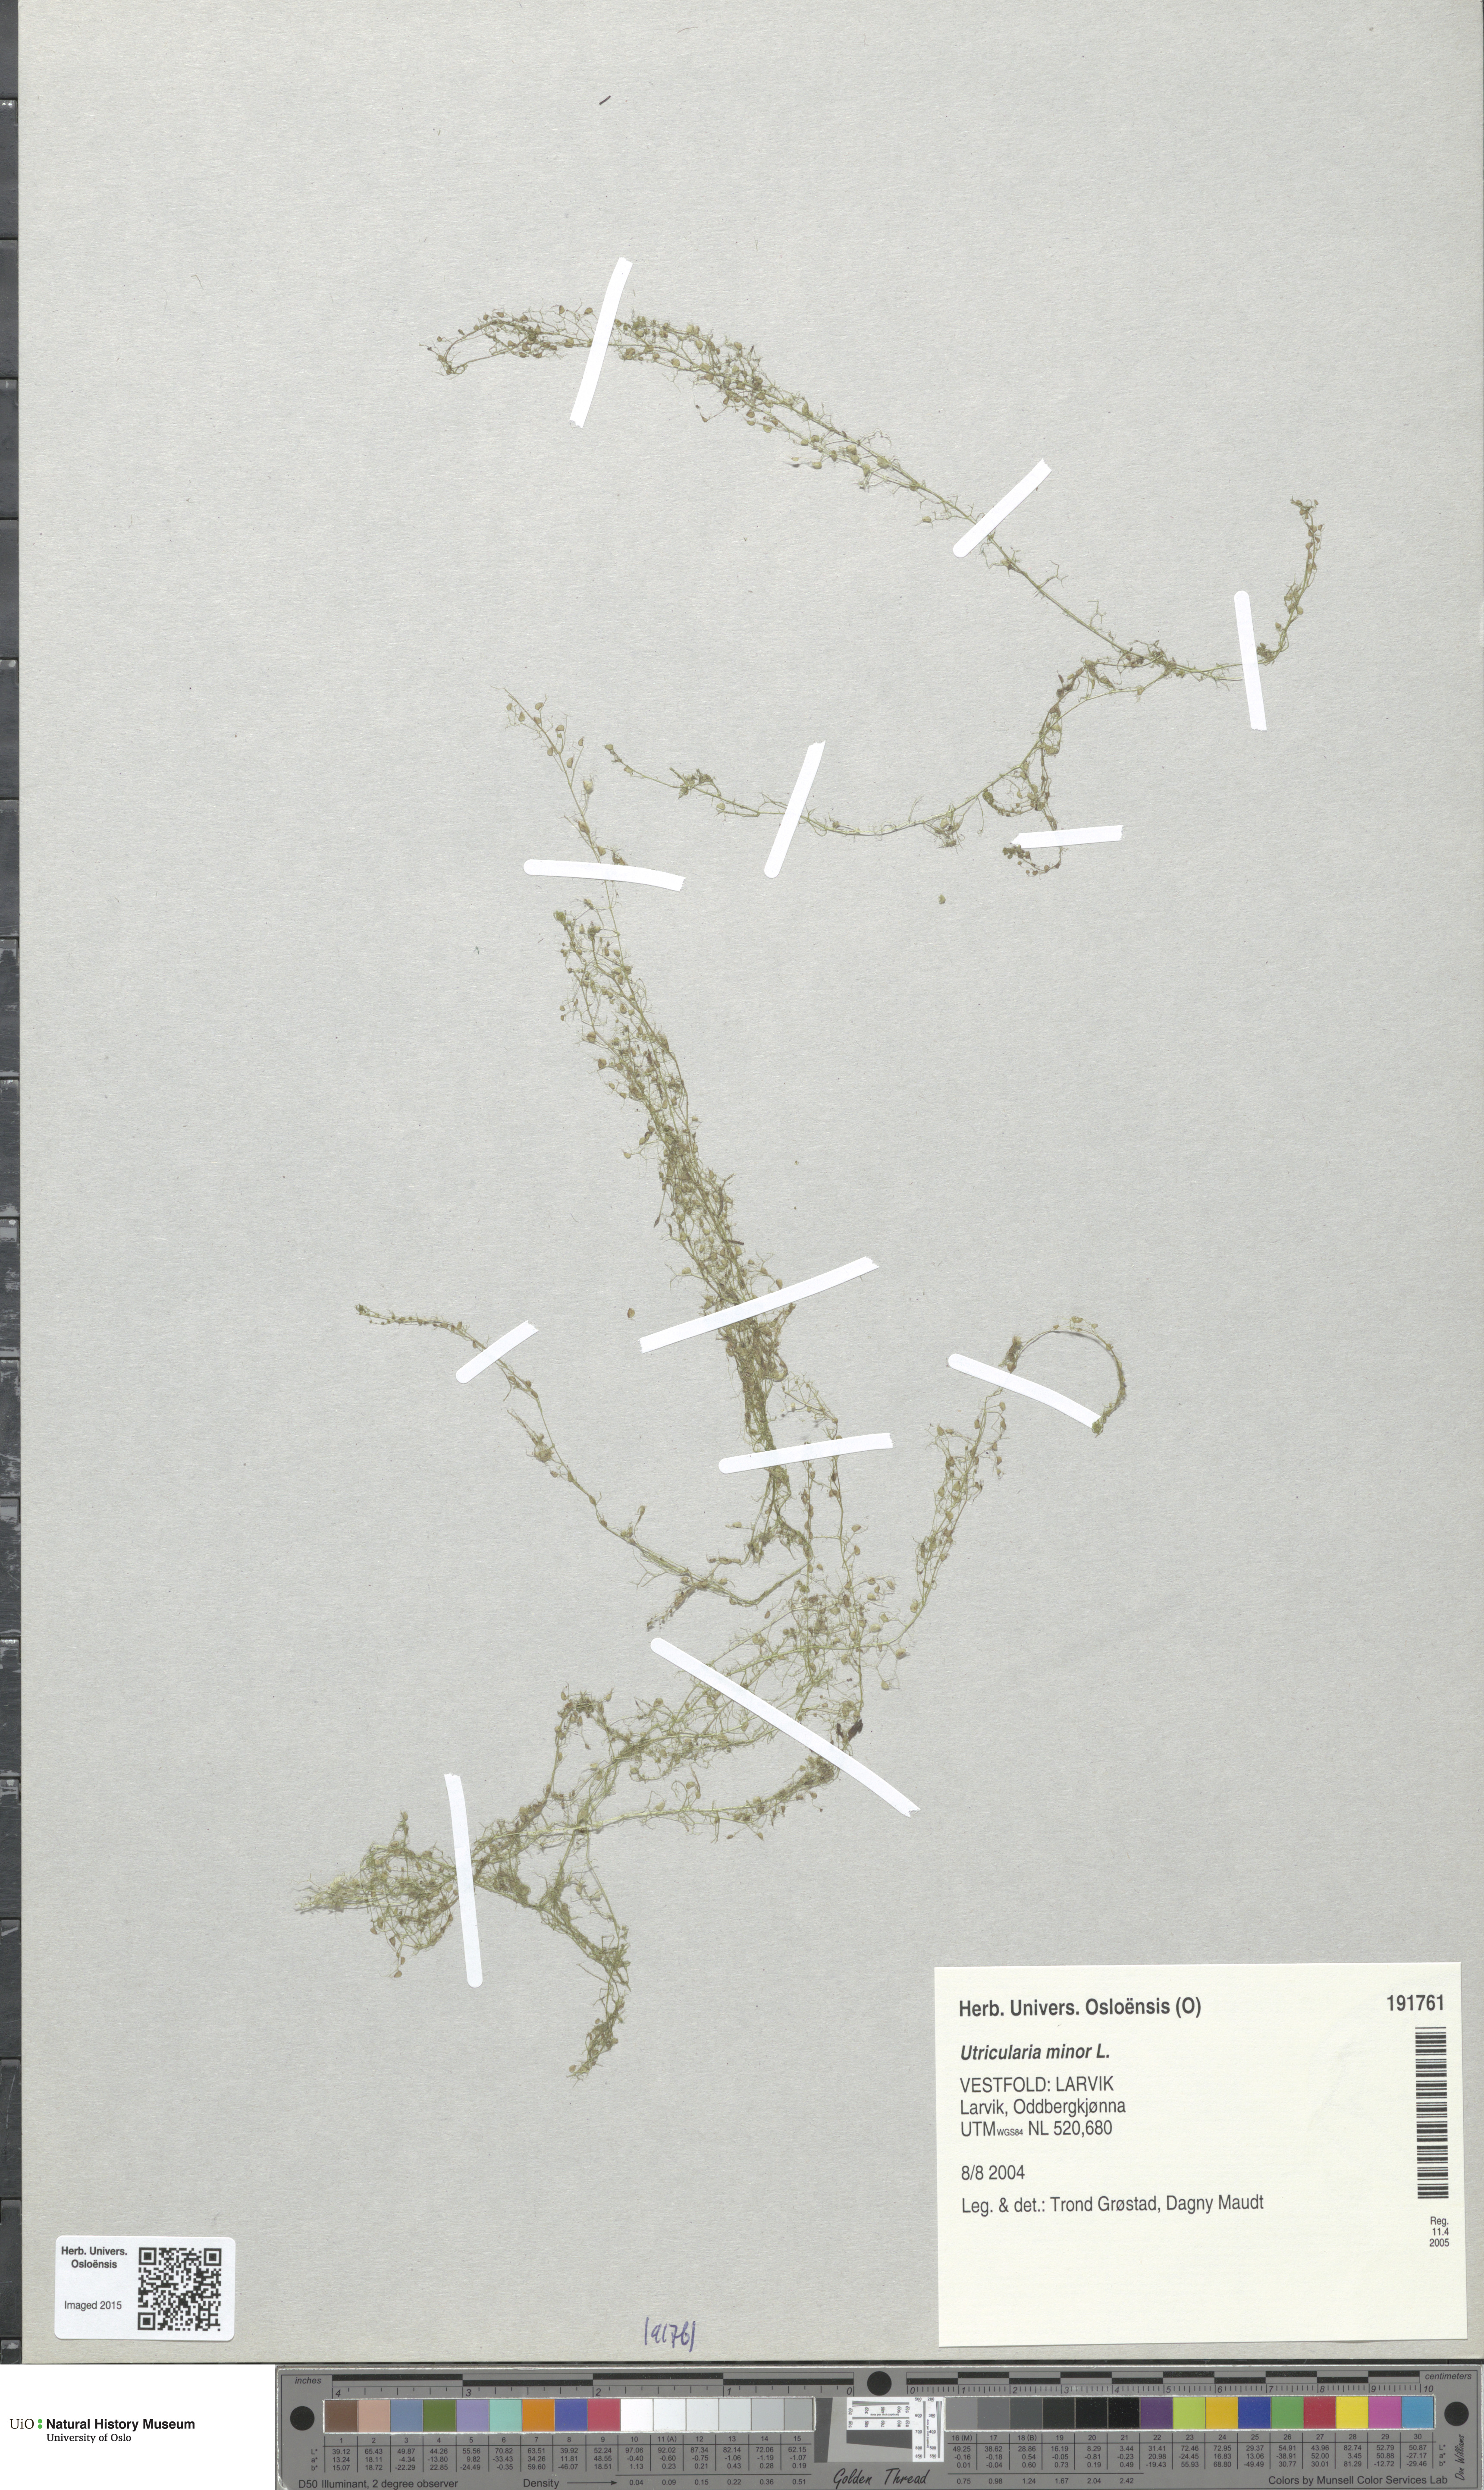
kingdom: Plantae
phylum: Tracheophyta
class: Magnoliopsida
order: Lamiales
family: Lentibulariaceae
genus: Utricularia
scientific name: Utricularia minor
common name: Lesser bladderwort
